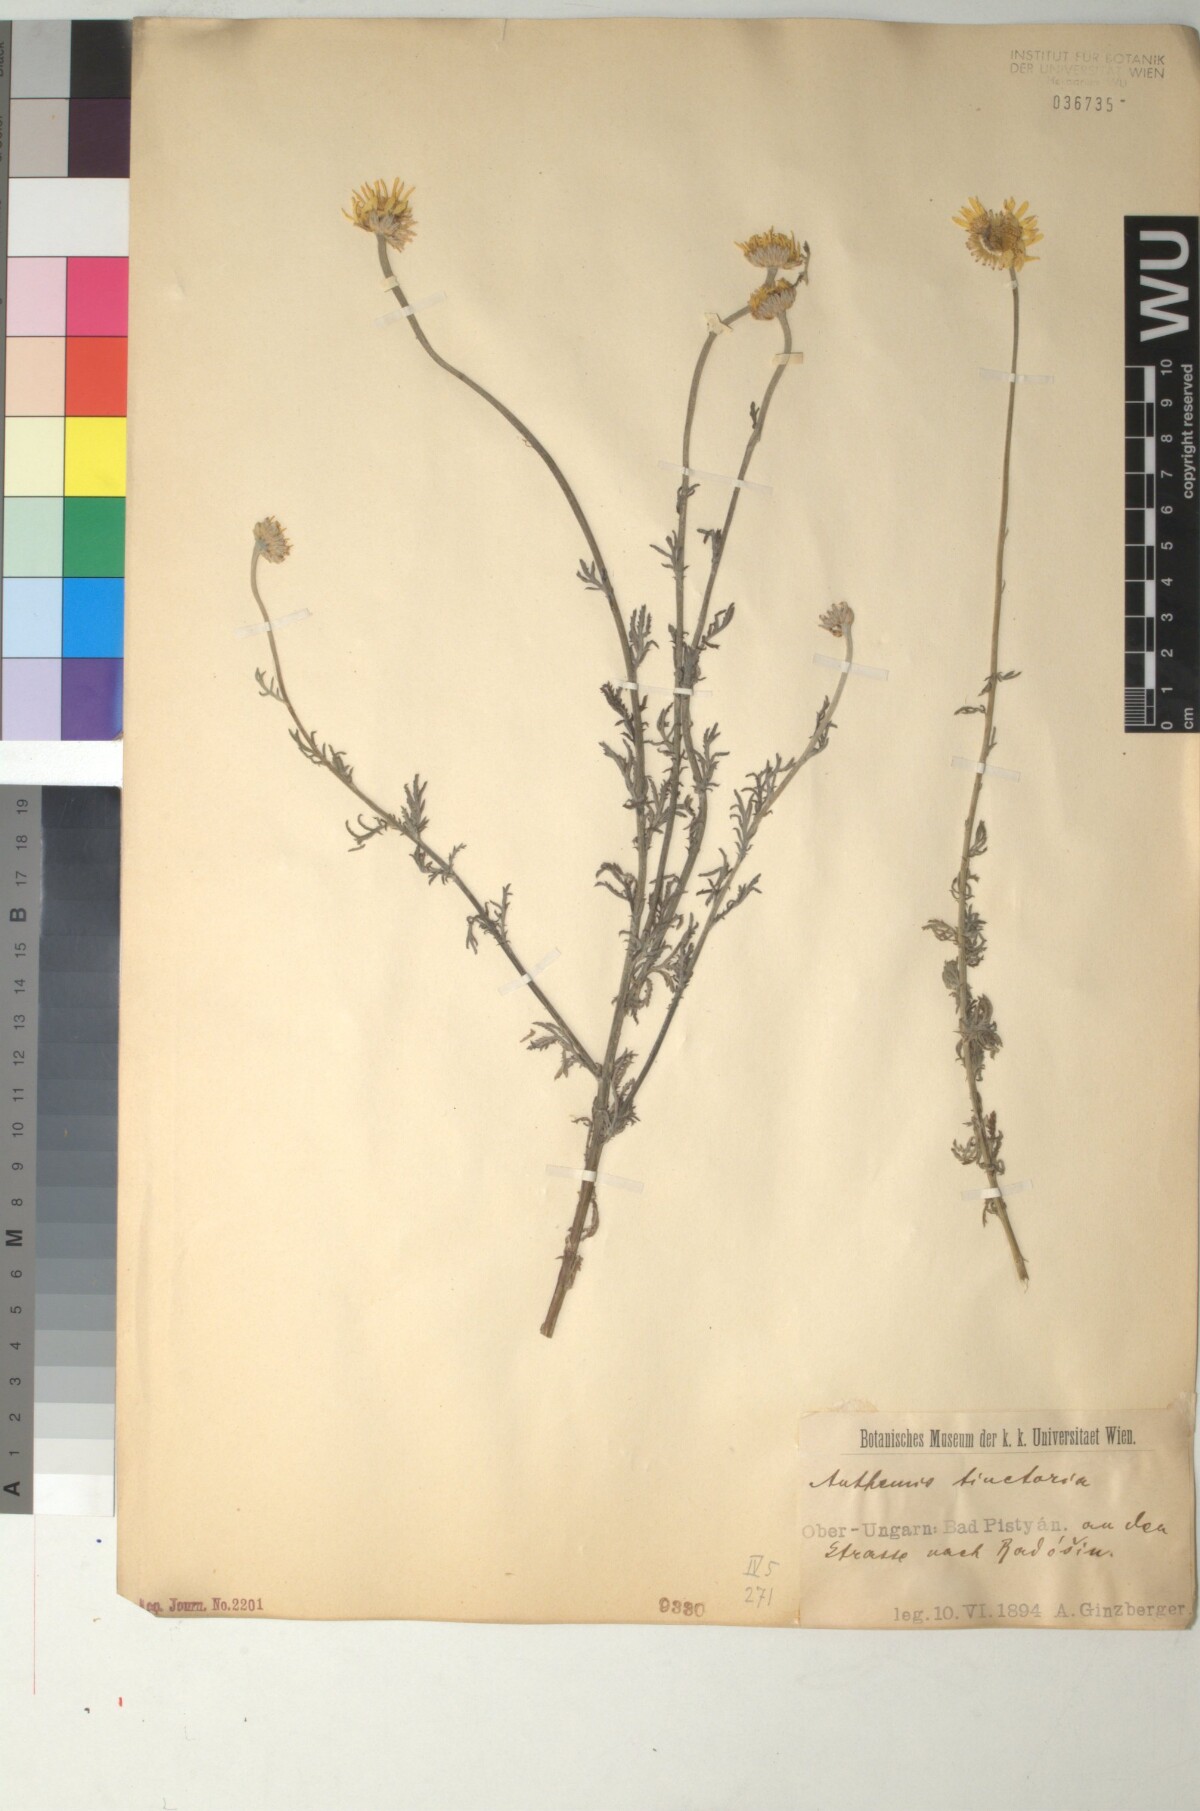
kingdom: Plantae
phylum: Tracheophyta
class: Magnoliopsida
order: Asterales
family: Asteraceae
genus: Cota
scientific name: Cota tinctoria
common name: Golden chamomile
